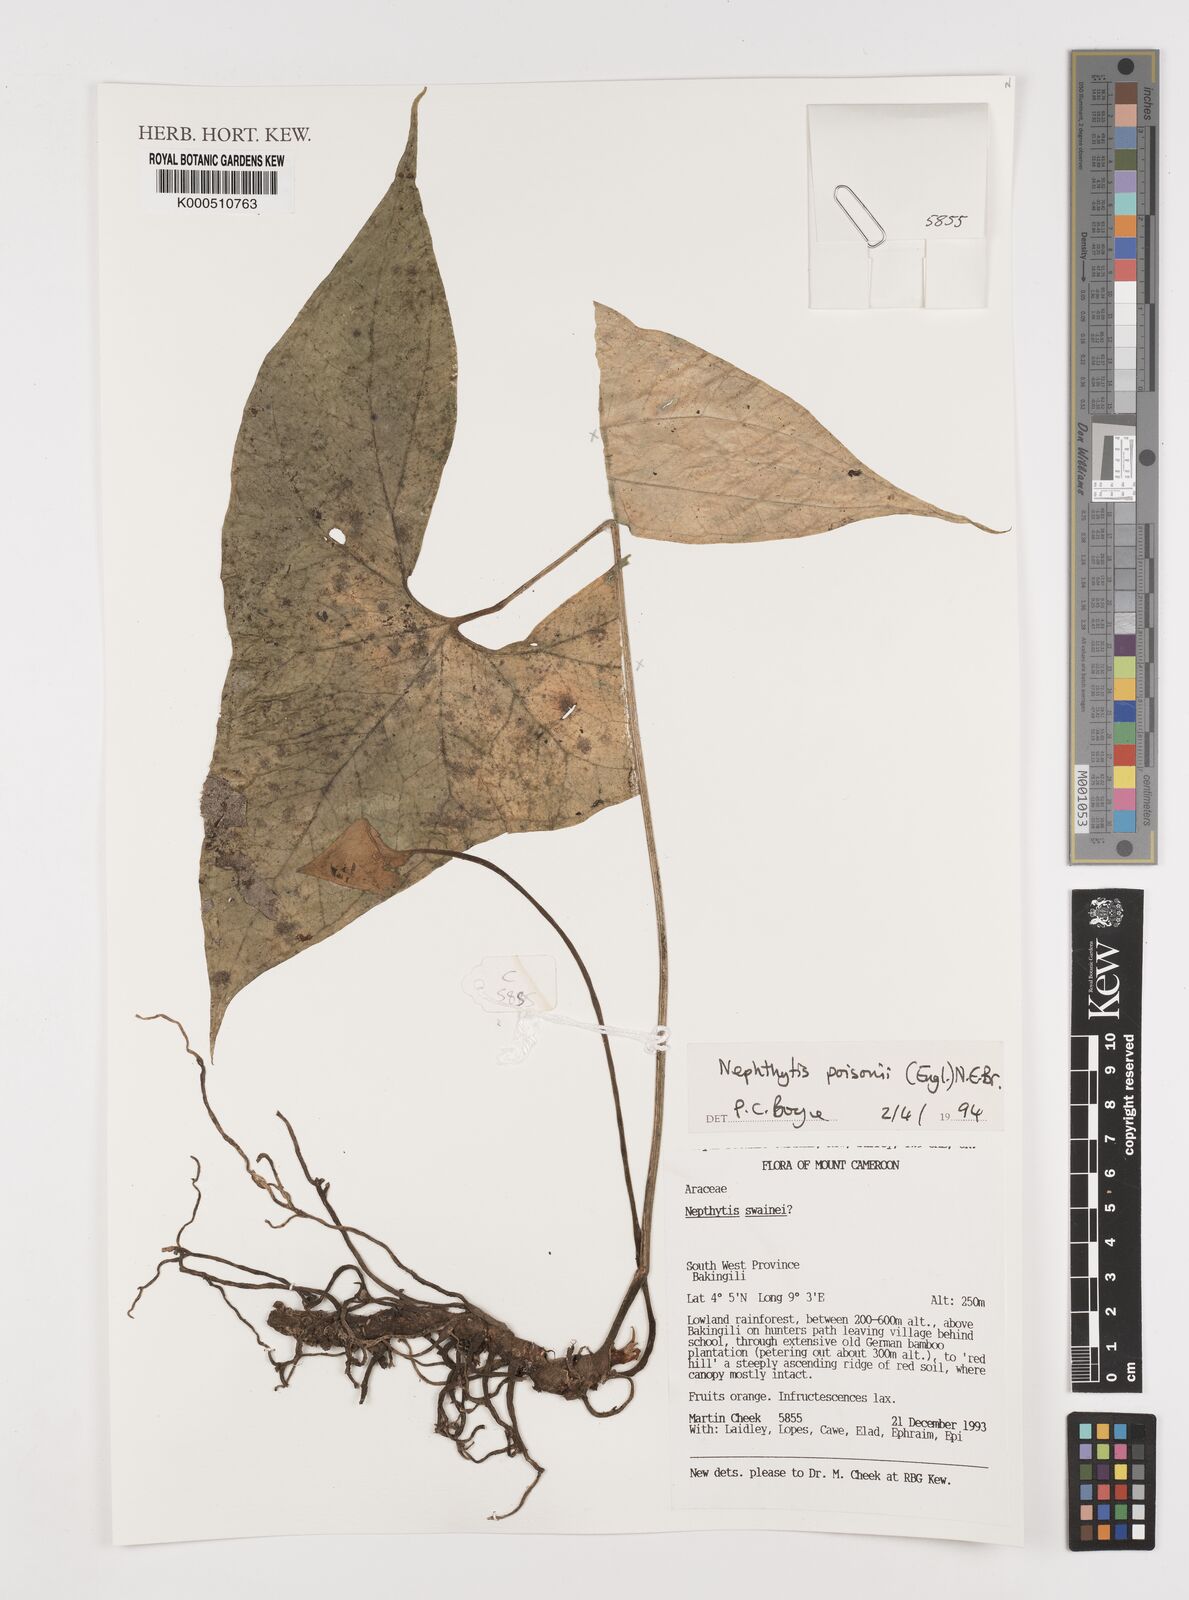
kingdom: Plantae
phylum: Tracheophyta
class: Liliopsida
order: Alismatales
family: Araceae
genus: Nephthytis
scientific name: Nephthytis poissonii
